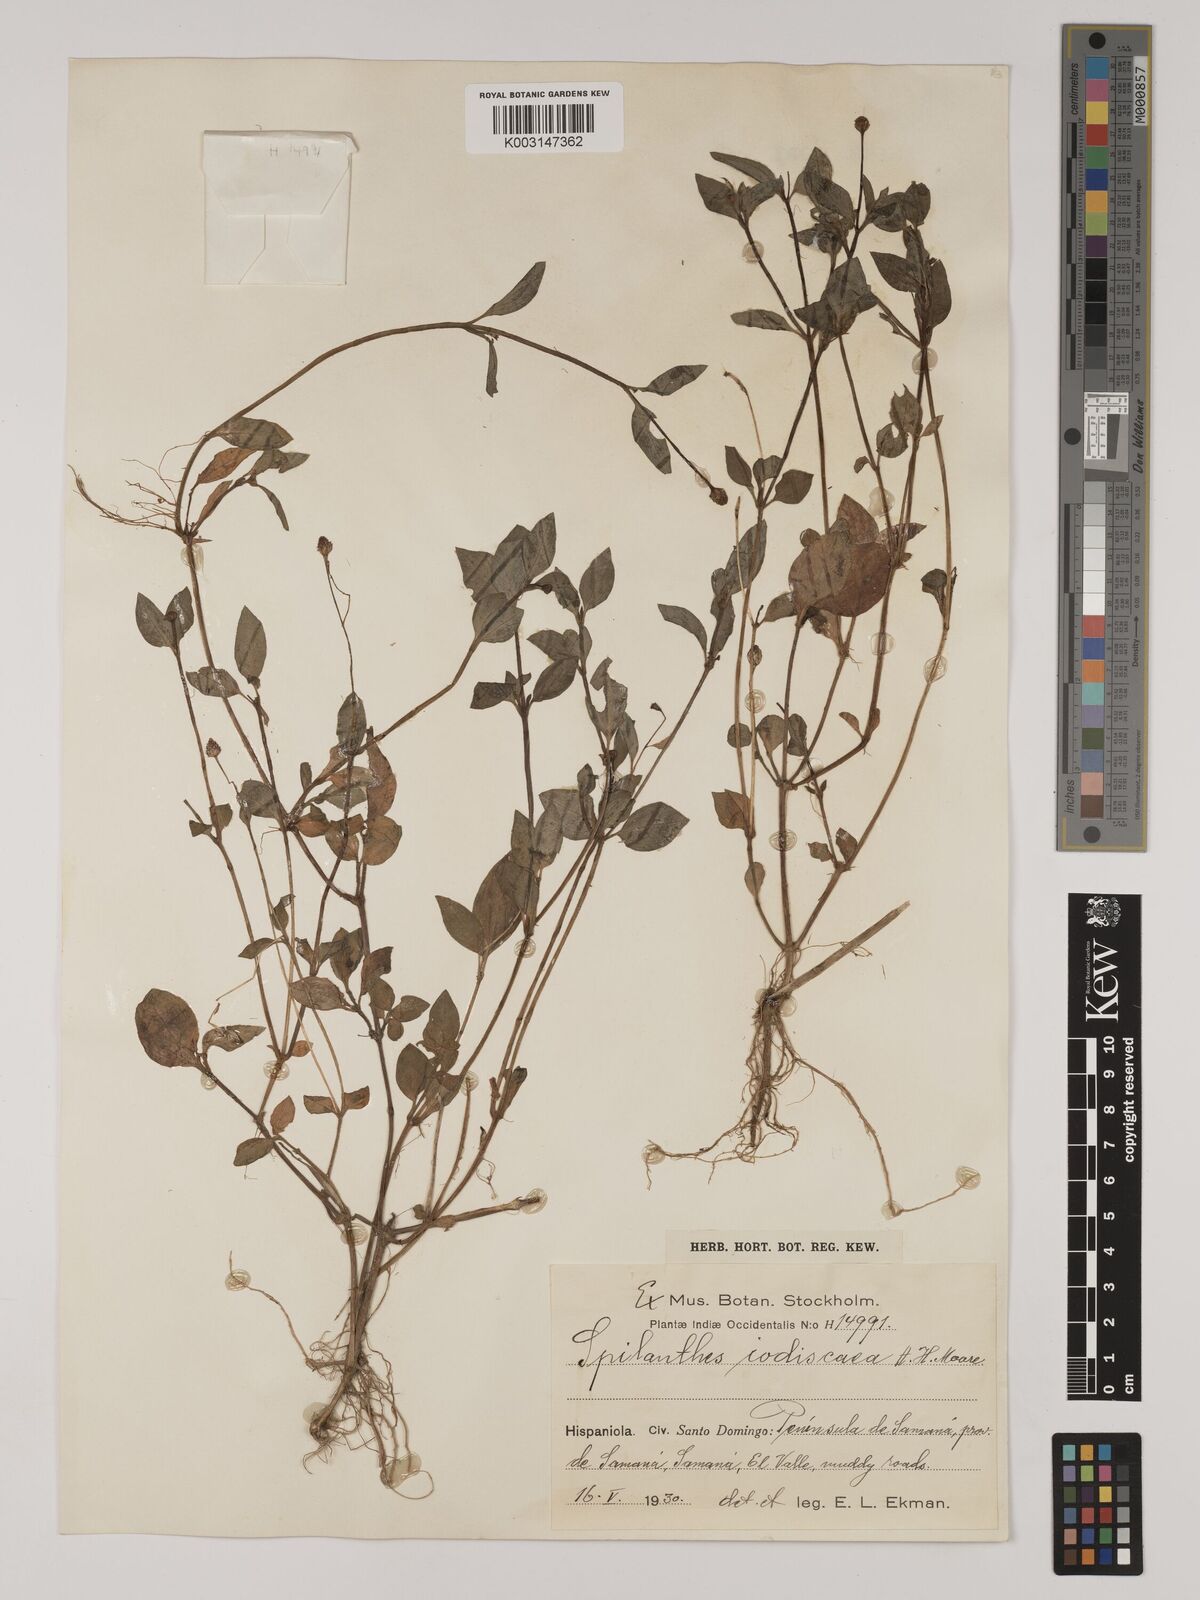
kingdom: Plantae
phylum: Tracheophyta
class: Magnoliopsida
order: Asterales
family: Asteraceae
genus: Acmella
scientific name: Acmella iodiscaea
